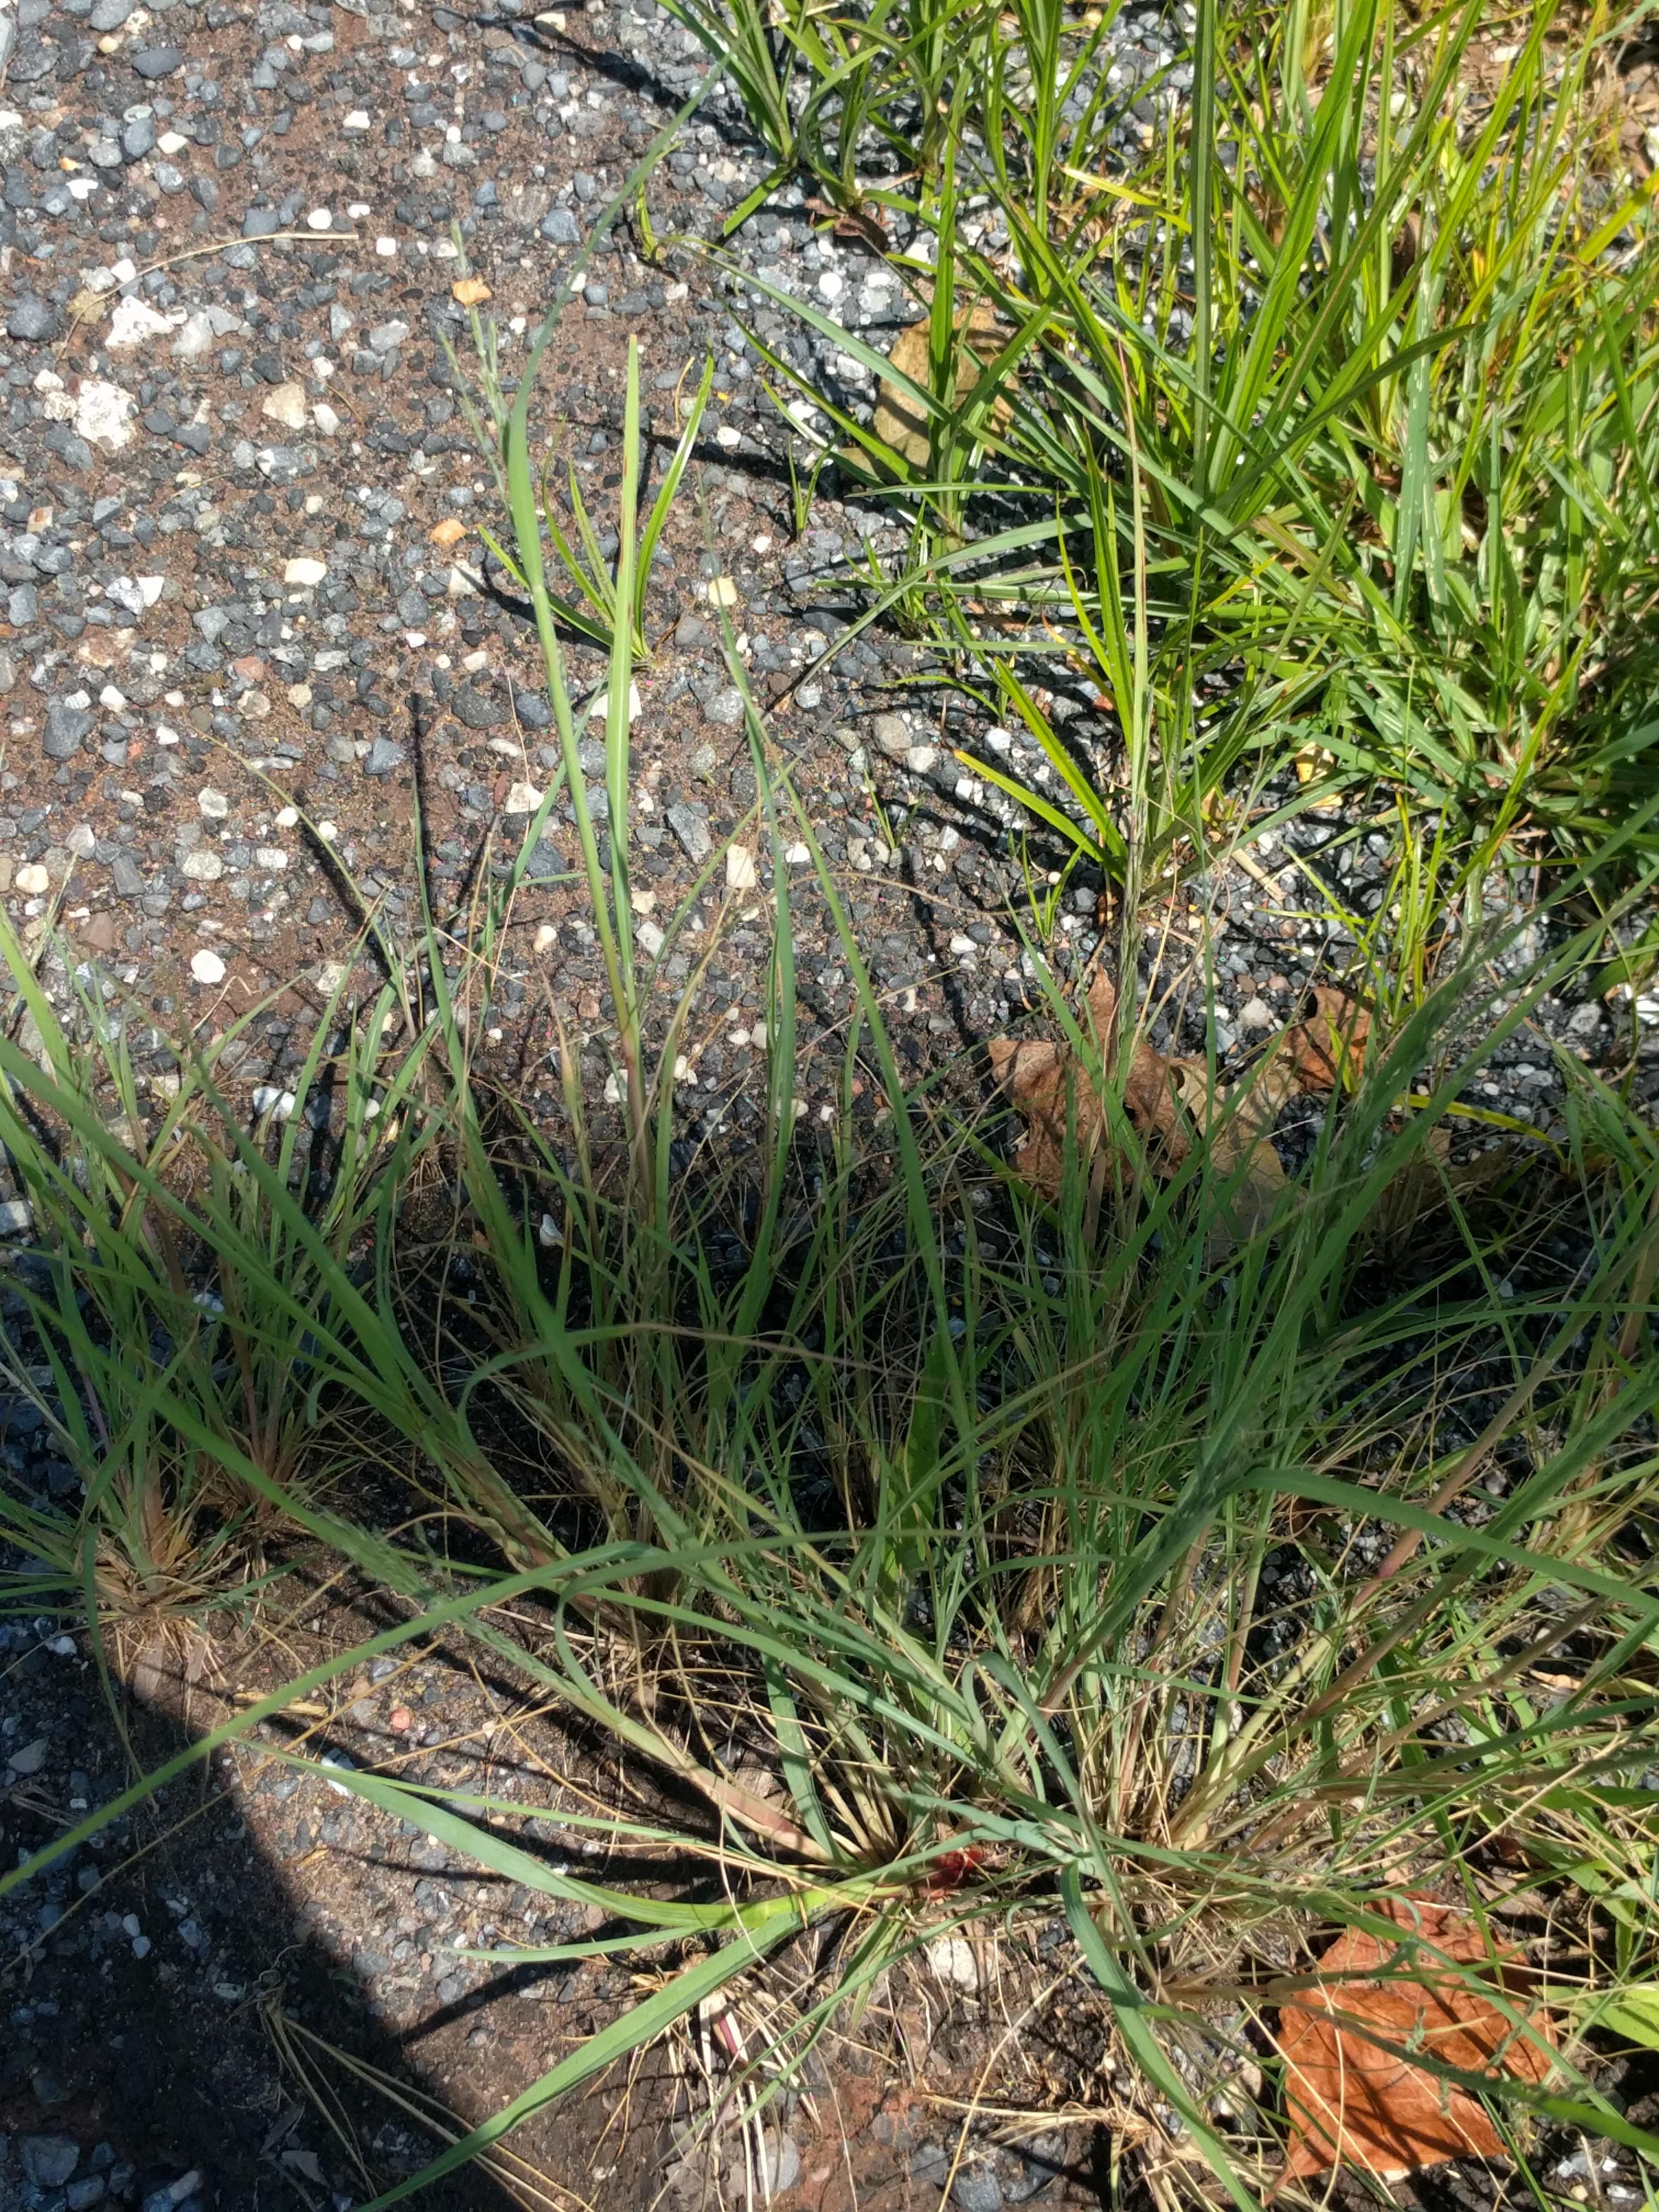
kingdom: Plantae
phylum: Tracheophyta
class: Liliopsida
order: Poales
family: Poaceae
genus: Diplachne
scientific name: Diplachne fusca
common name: Brown beetle grass
